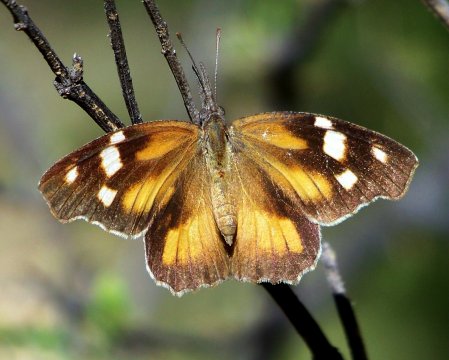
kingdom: Animalia
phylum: Arthropoda
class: Insecta
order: Lepidoptera
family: Nymphalidae
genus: Libytheana
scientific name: Libytheana carinenta
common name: American Snout
